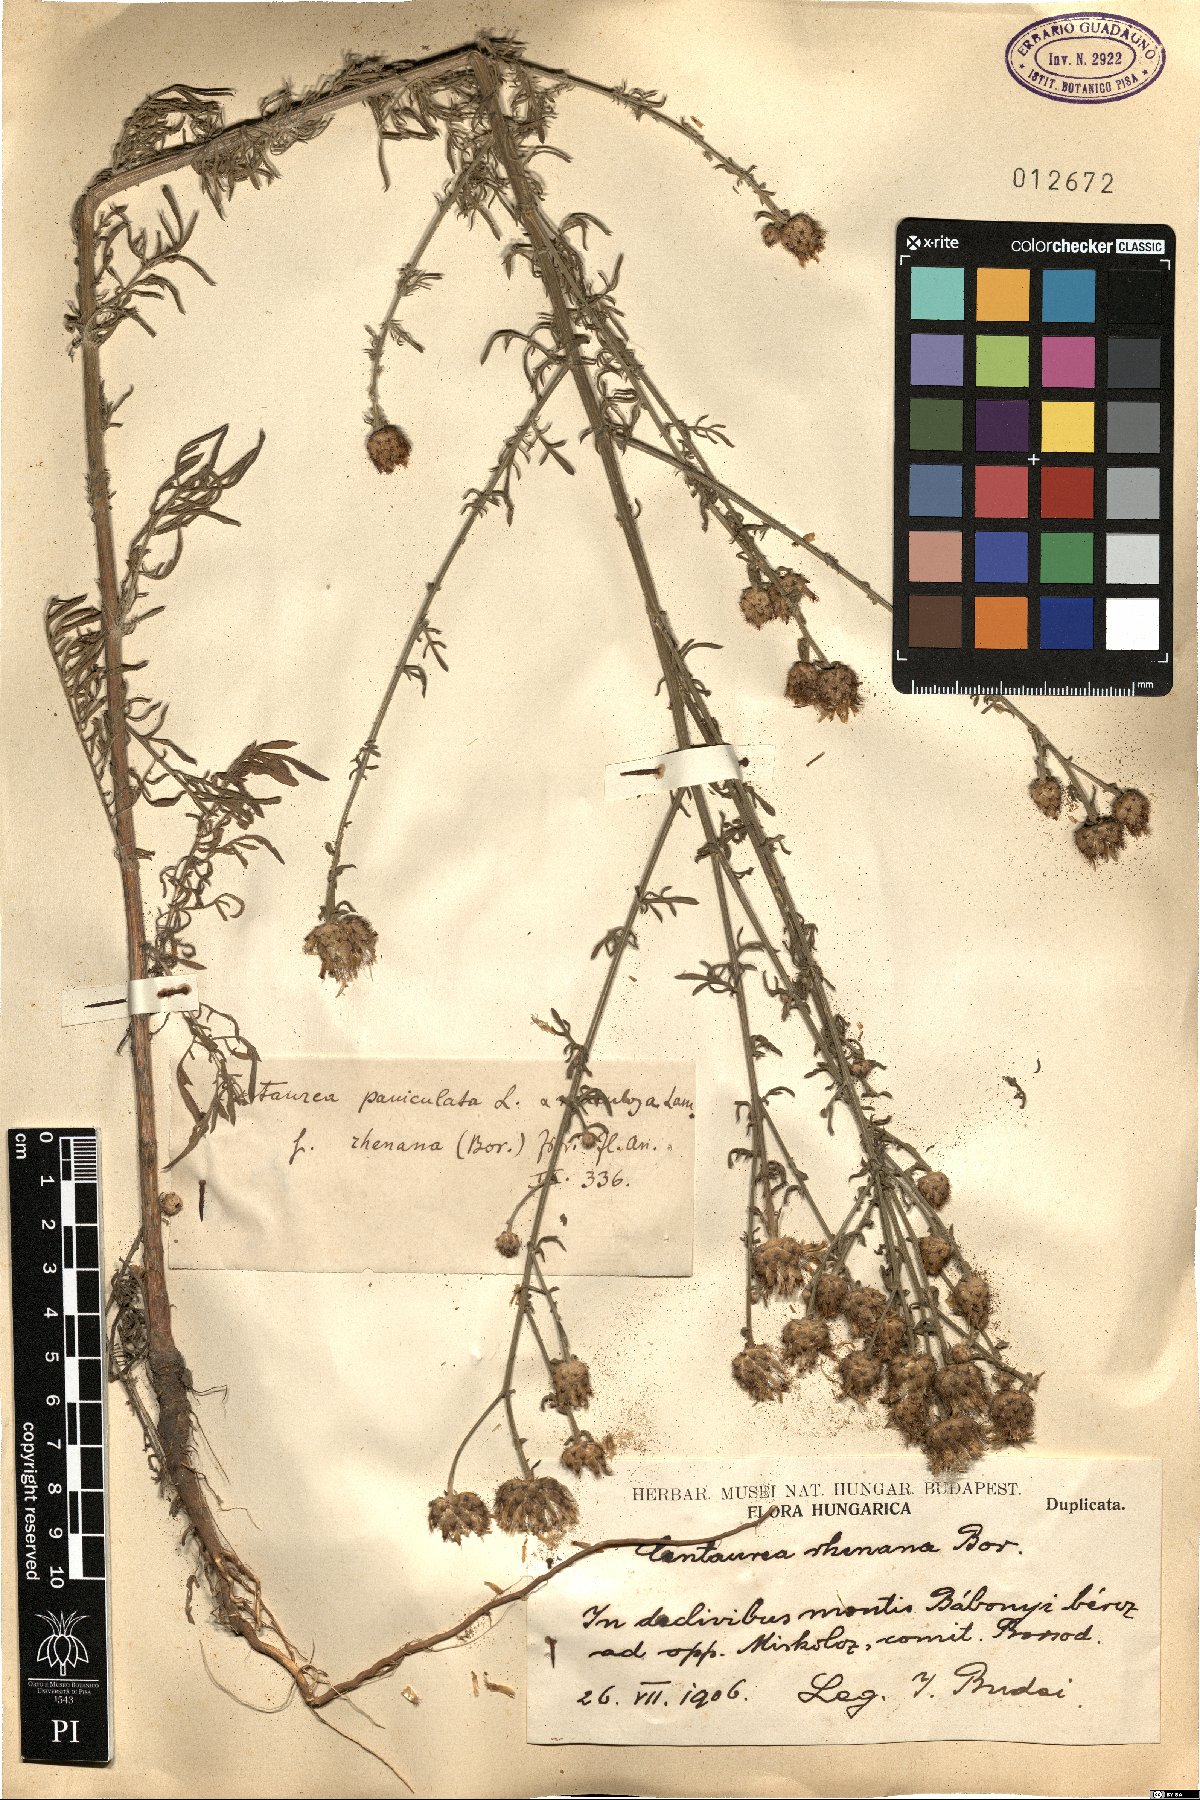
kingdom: Plantae
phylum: Tracheophyta
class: Magnoliopsida
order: Asterales
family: Asteraceae
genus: Centaurea
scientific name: Centaurea stoebe
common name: Spotted knapweed
